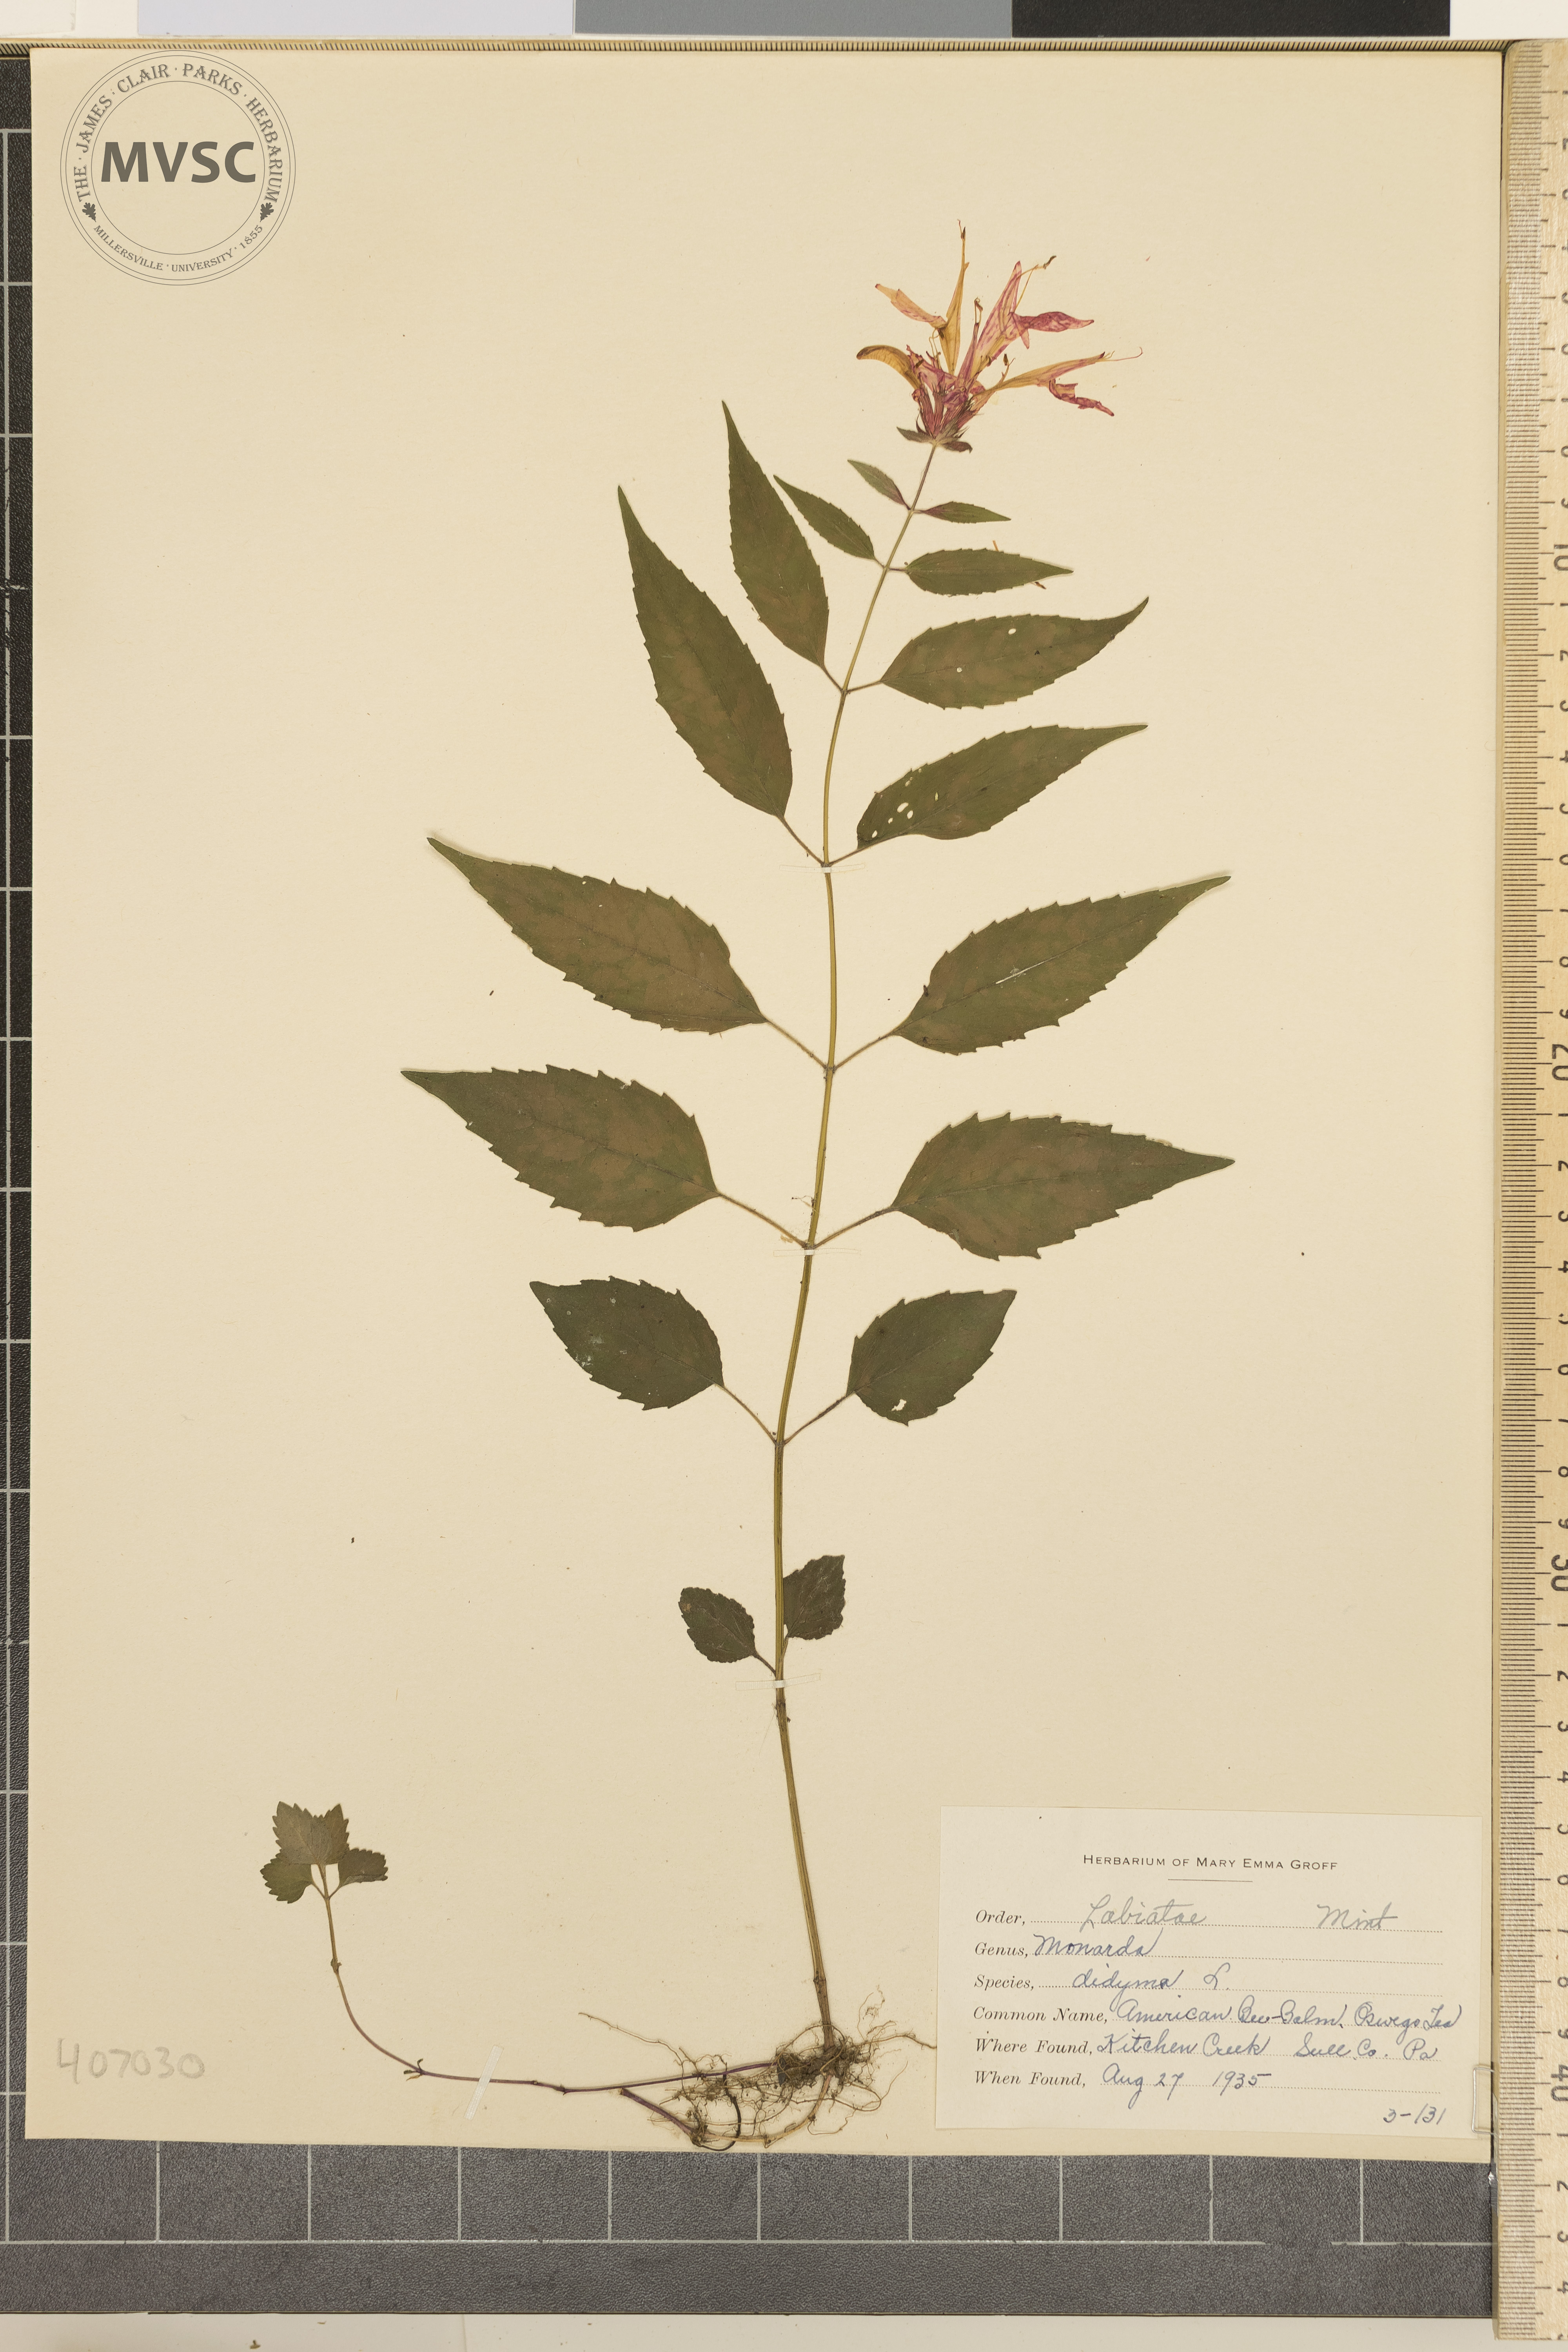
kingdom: Plantae
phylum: Tracheophyta
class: Magnoliopsida
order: Lamiales
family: Lamiaceae
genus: Monarda
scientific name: Monarda didyma
